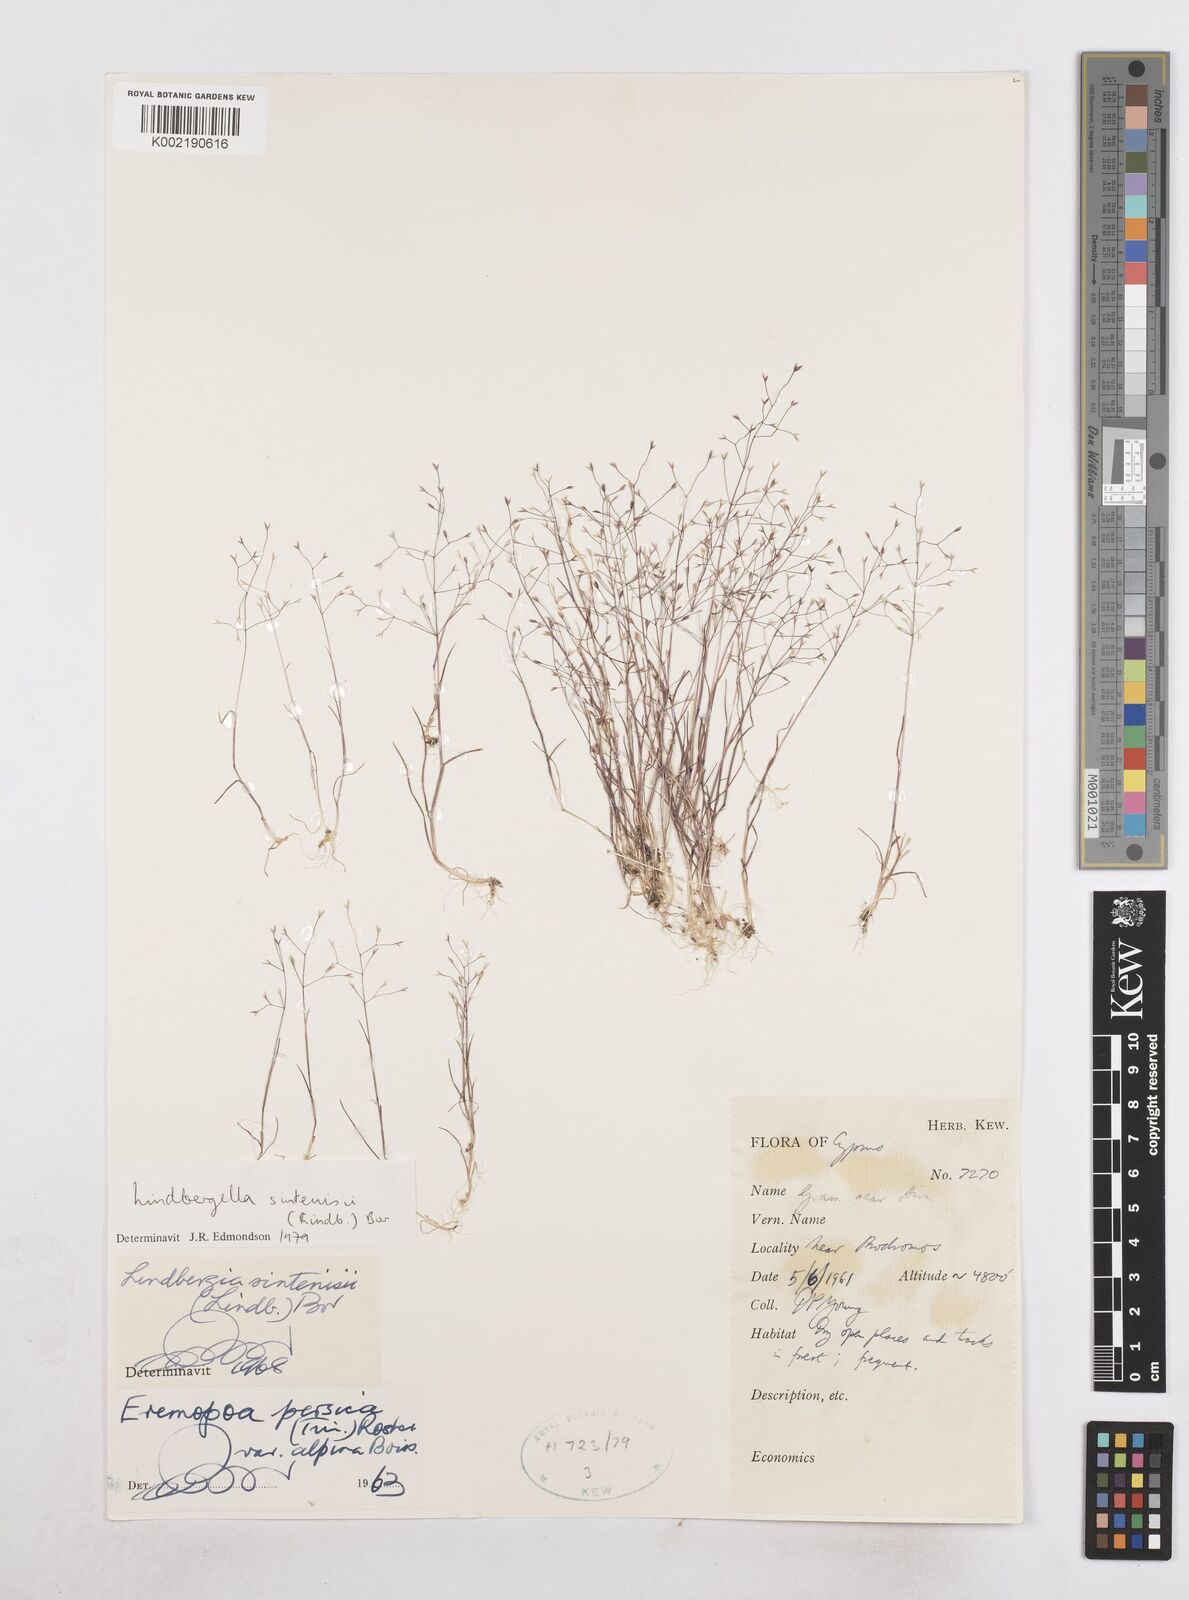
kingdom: Plantae
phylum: Tracheophyta
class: Liliopsida
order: Poales
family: Poaceae
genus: Poa
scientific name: Poa sintenisii
